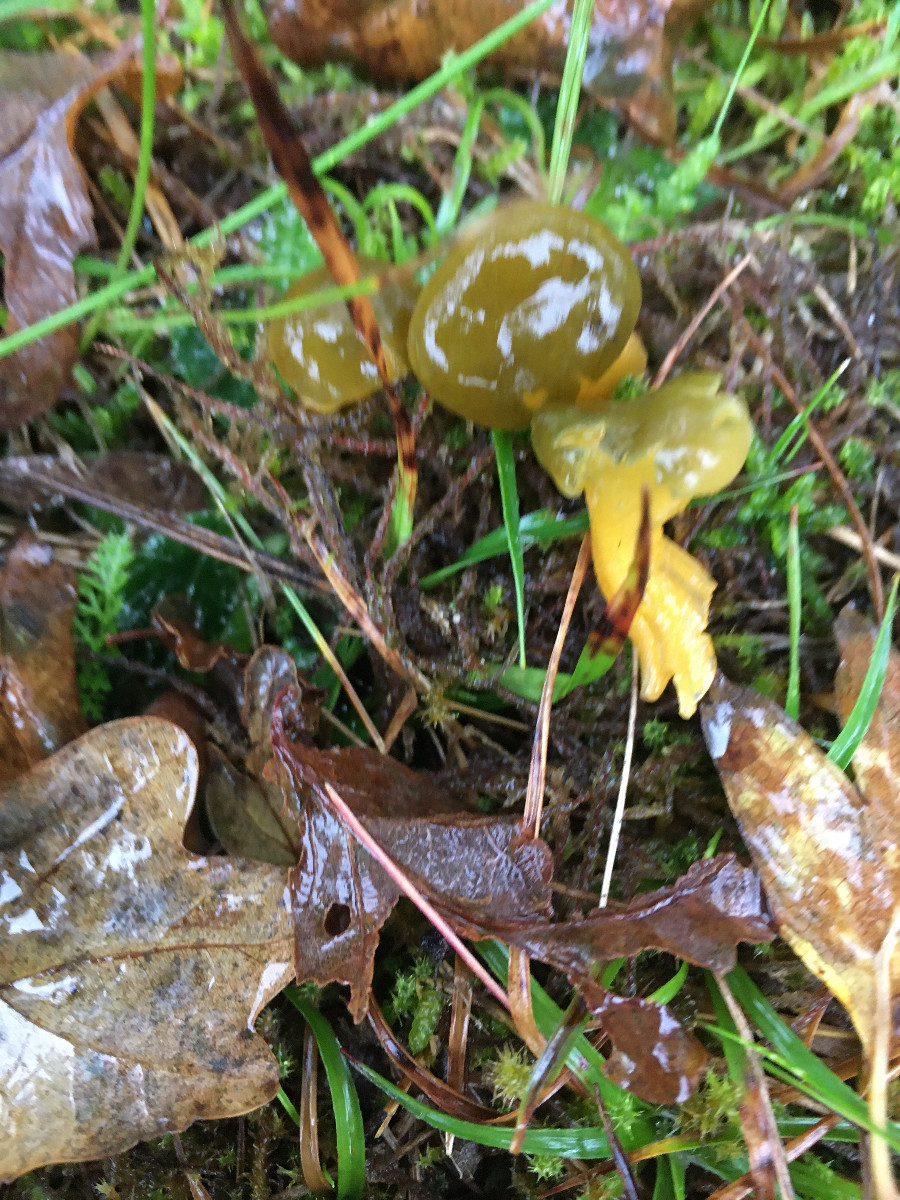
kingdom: Fungi
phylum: Ascomycota
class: Leotiomycetes
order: Leotiales
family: Leotiaceae
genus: Leotia
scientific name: Leotia lubrica
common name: ravsvamp
